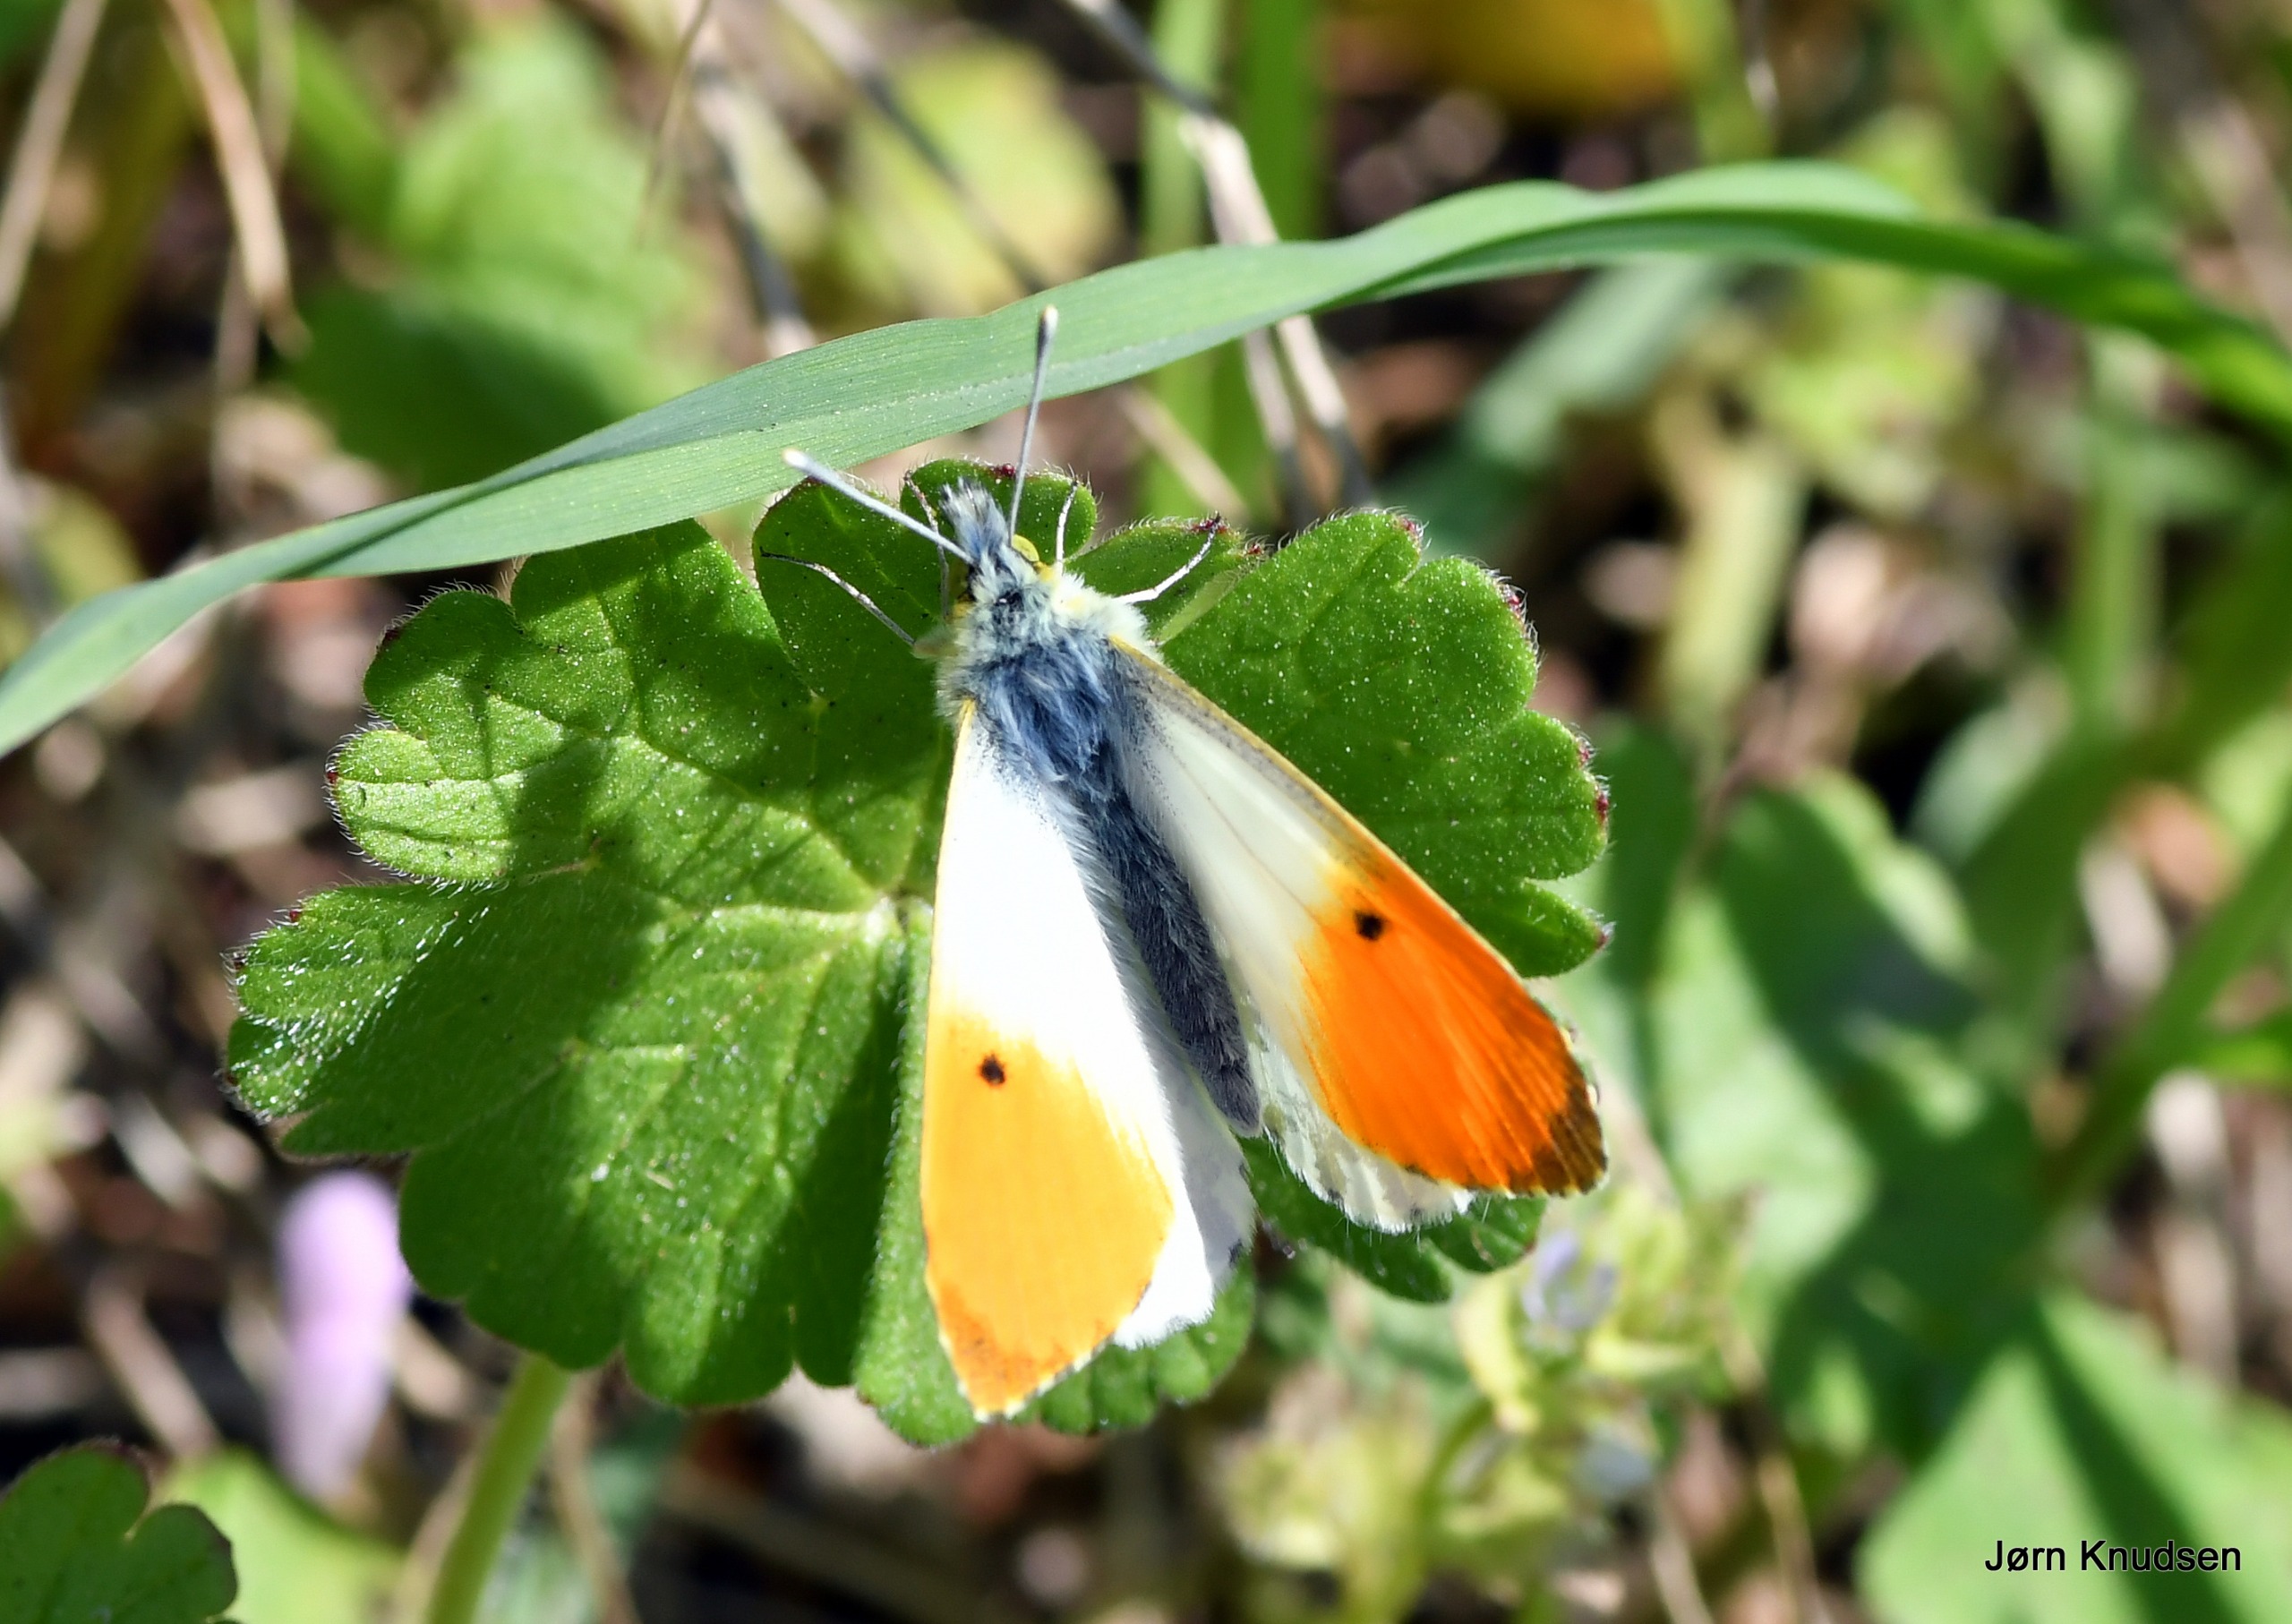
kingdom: Animalia
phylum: Arthropoda
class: Insecta
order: Lepidoptera
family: Pieridae
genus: Anthocharis
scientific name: Anthocharis cardamines
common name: Aurora
